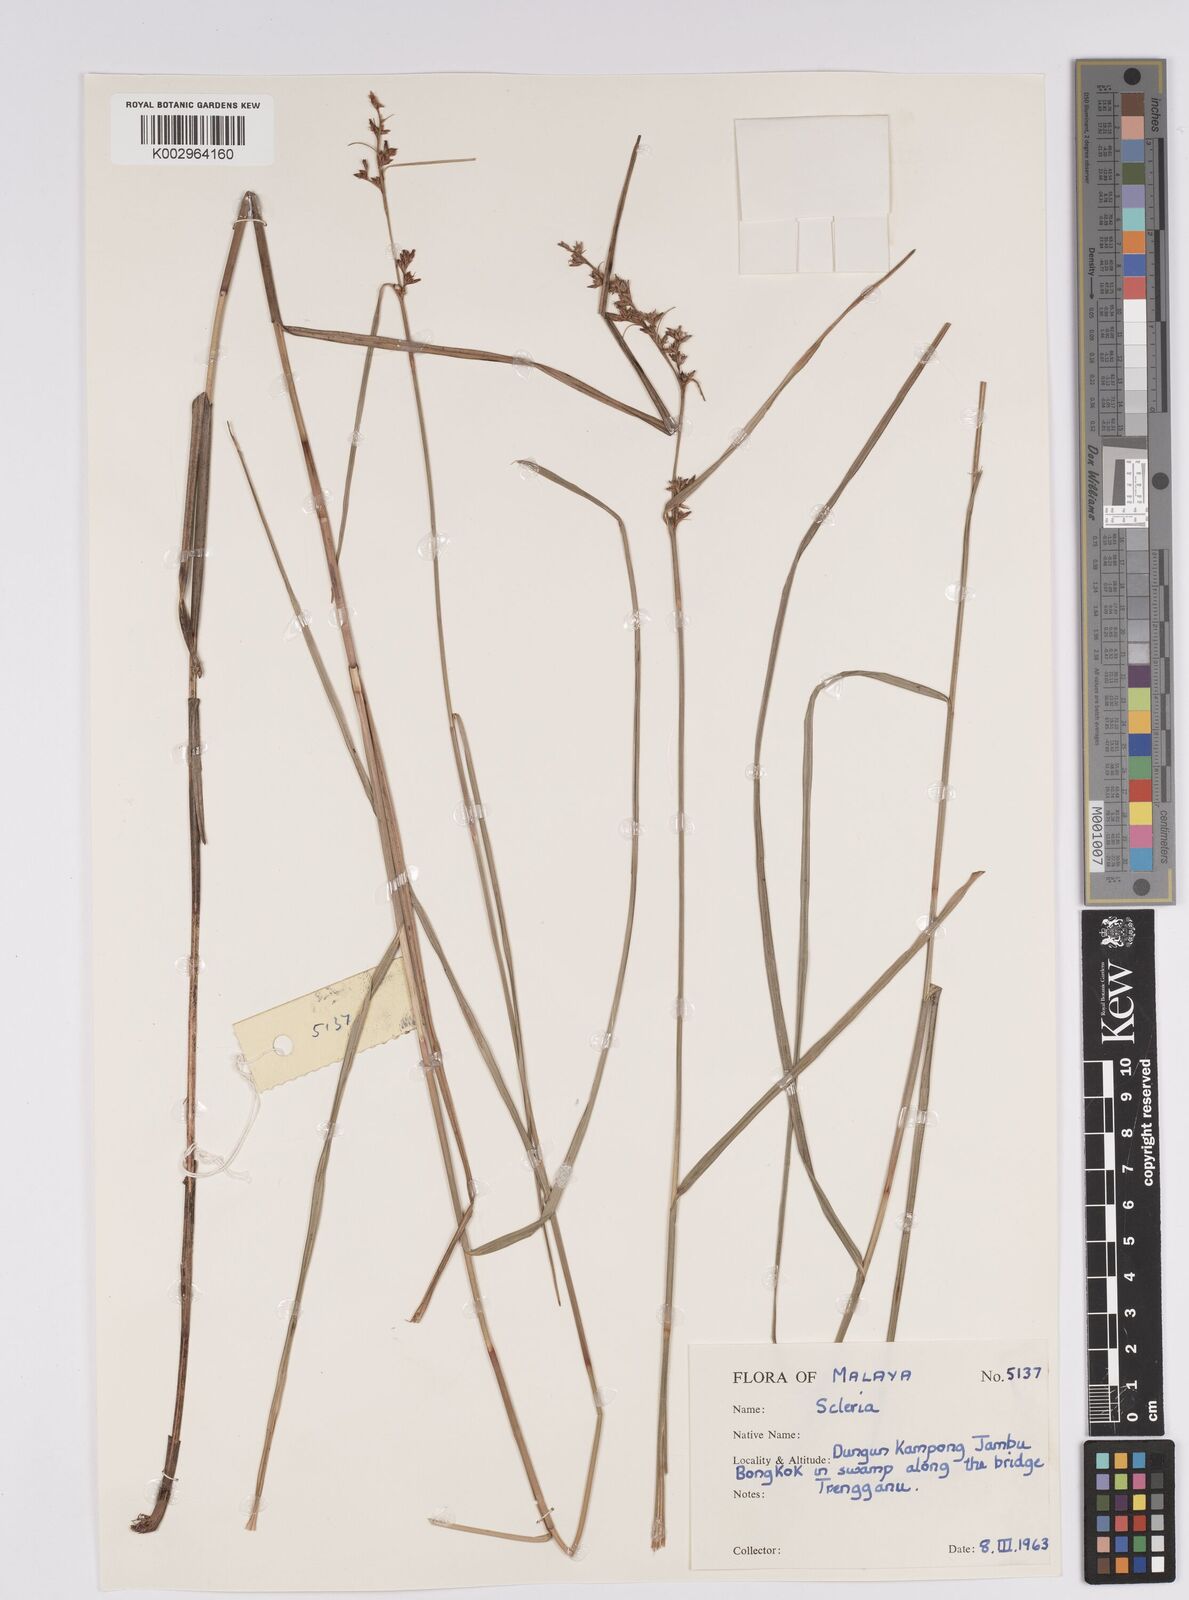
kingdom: Plantae
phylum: Tracheophyta
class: Liliopsida
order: Poales
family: Cyperaceae
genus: Scleria
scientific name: Scleria
